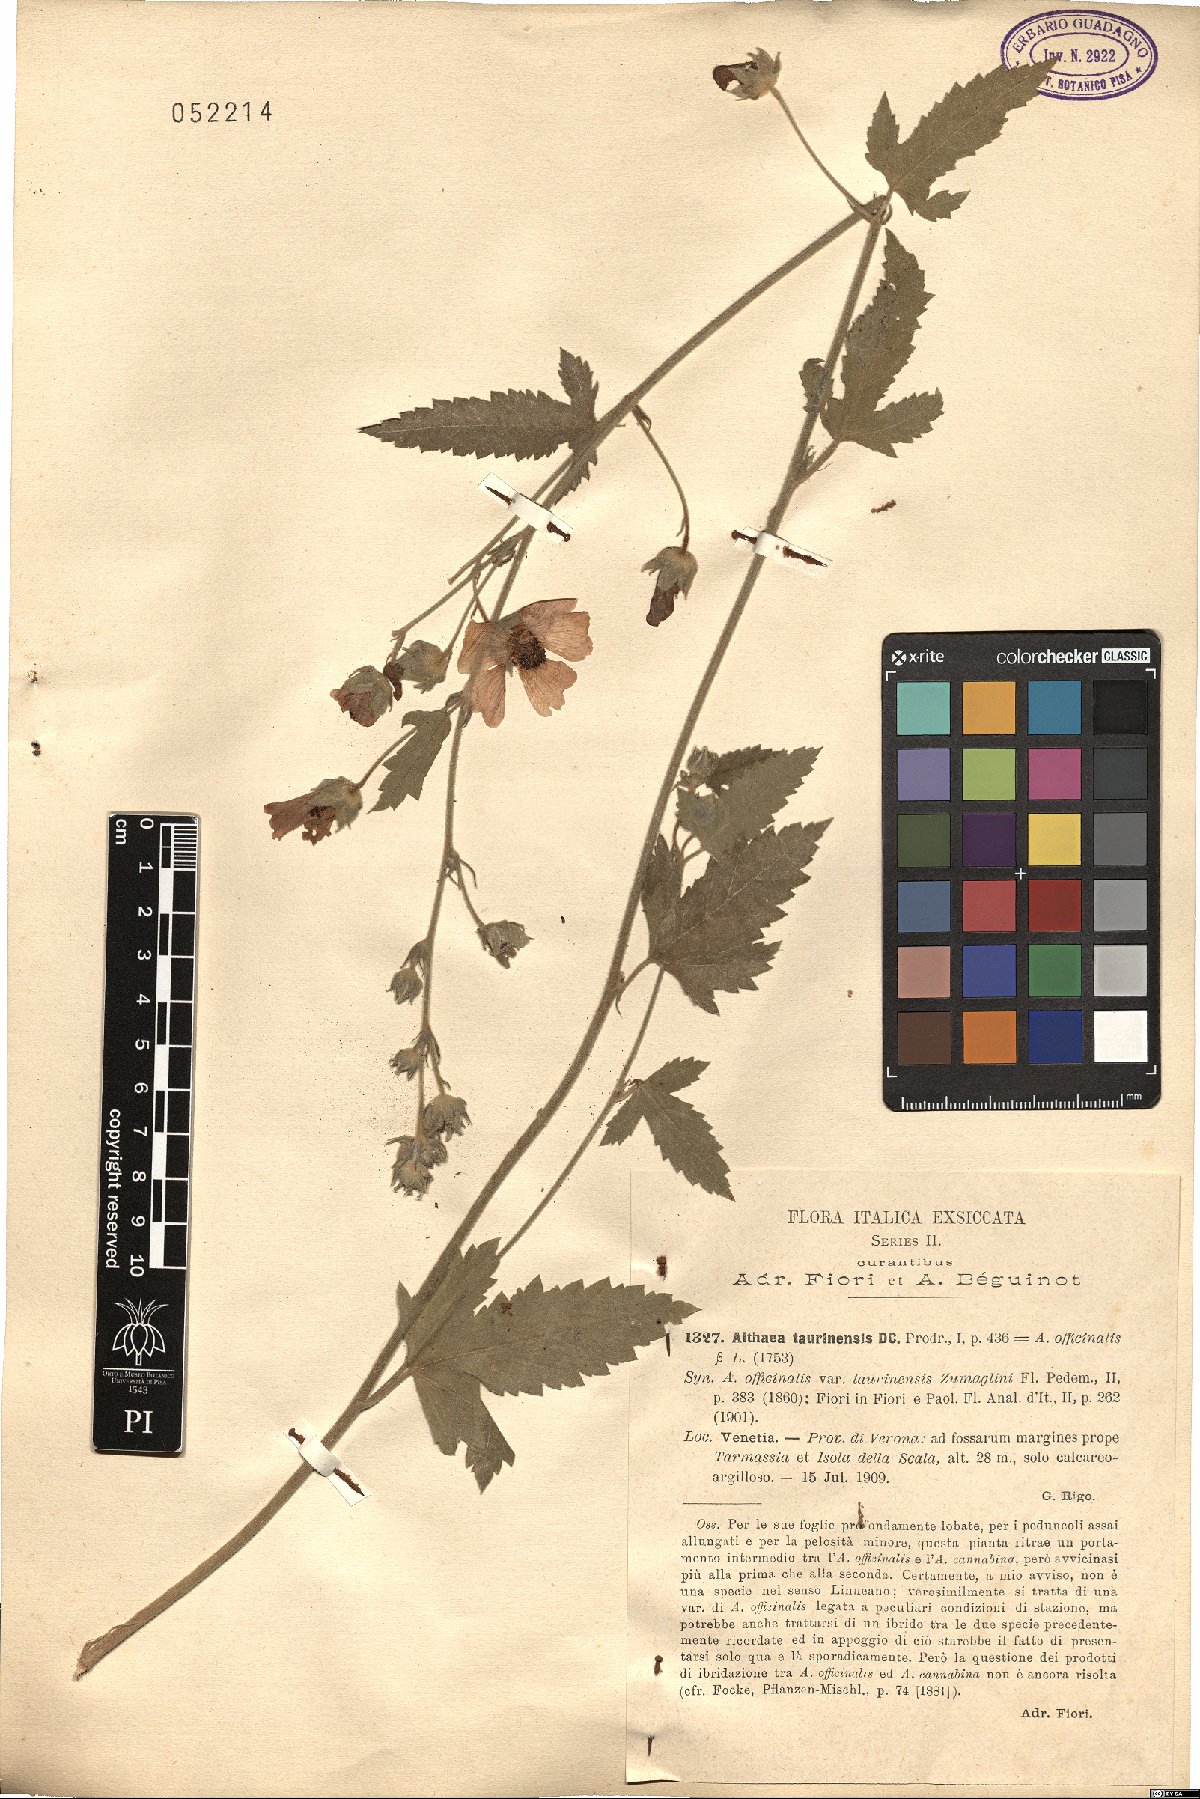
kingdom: Plantae
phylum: Tracheophyta
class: Magnoliopsida
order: Malvales
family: Malvaceae
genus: Althaea
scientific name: Althaea taurinensis
